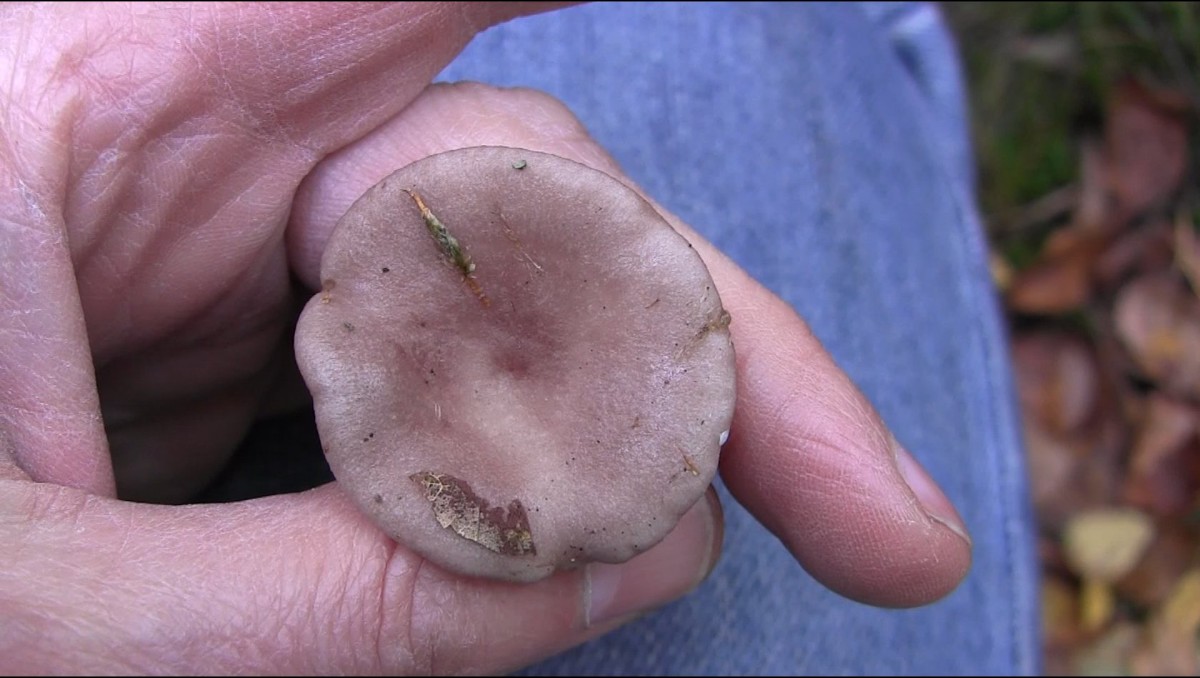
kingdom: Fungi
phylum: Basidiomycota
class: Agaricomycetes
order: Russulales
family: Russulaceae
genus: Lactarius
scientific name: Lactarius vietus
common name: violetgrå mælkehat
